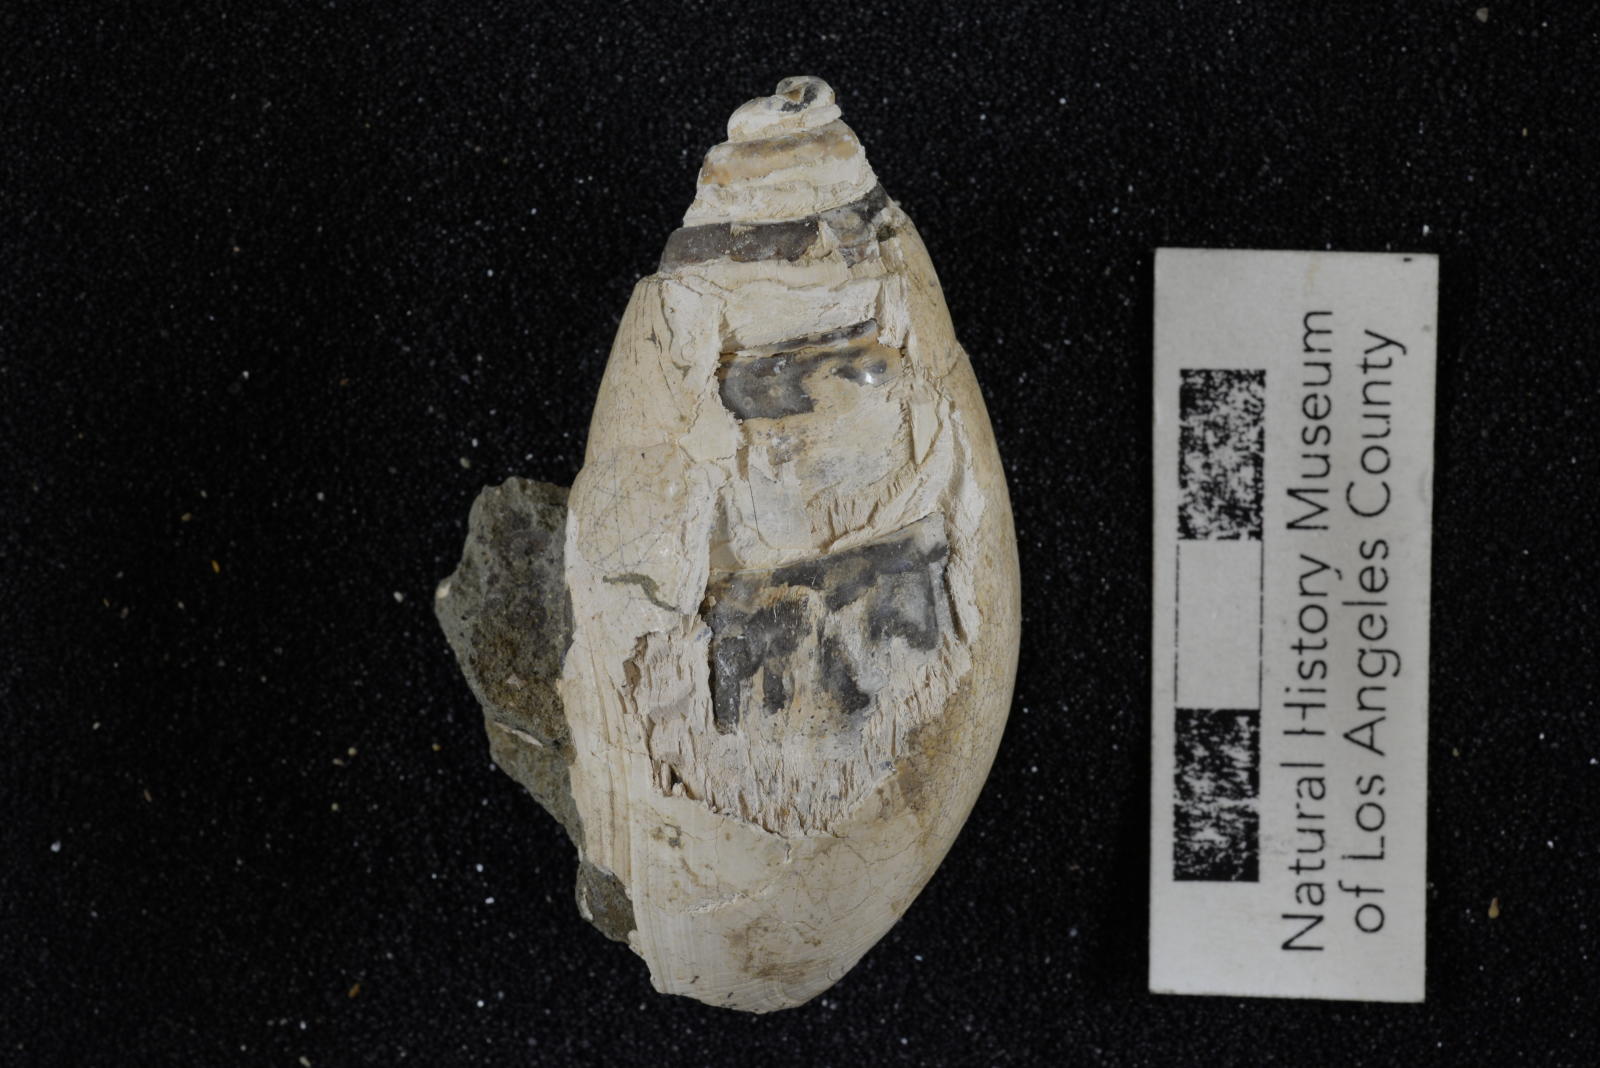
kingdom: Animalia
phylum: Mollusca
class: Gastropoda
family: Pseudomelaniidae
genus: Paosia
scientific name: Paosia Acteonina californica
